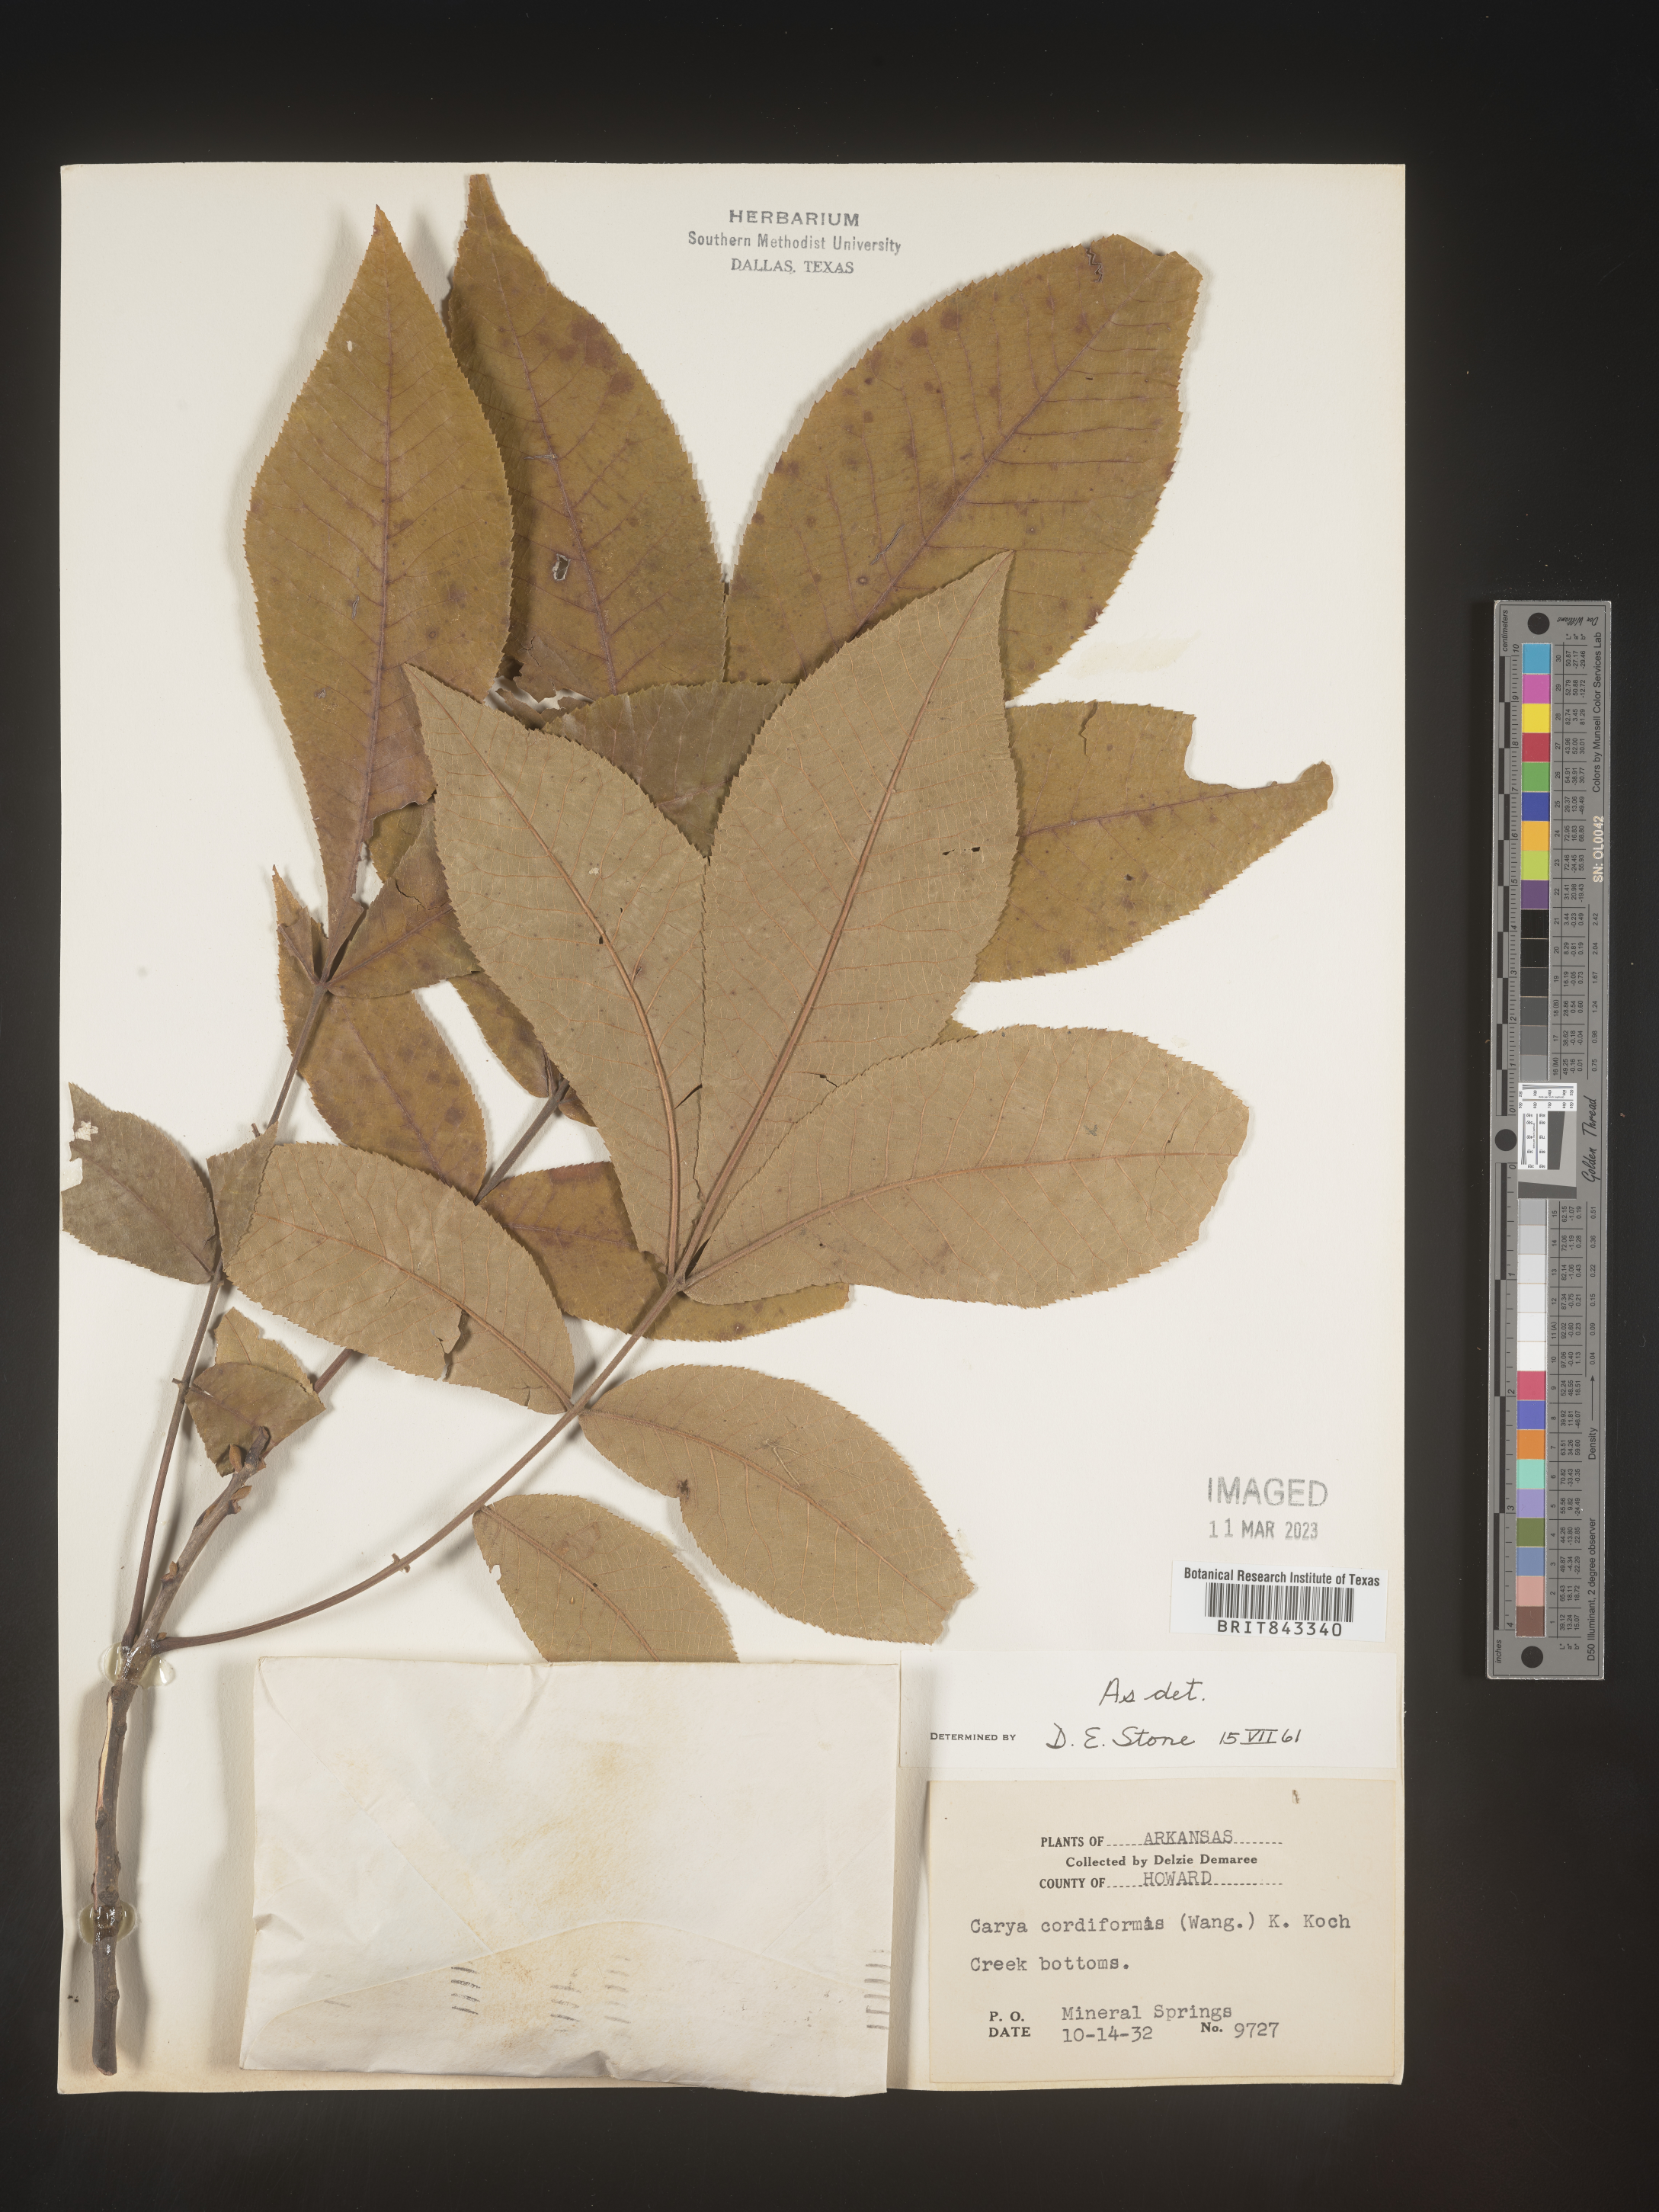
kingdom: Plantae
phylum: Tracheophyta
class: Magnoliopsida
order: Fagales
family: Juglandaceae
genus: Carya
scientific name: Carya cordiformis
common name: Bitternut hickory
